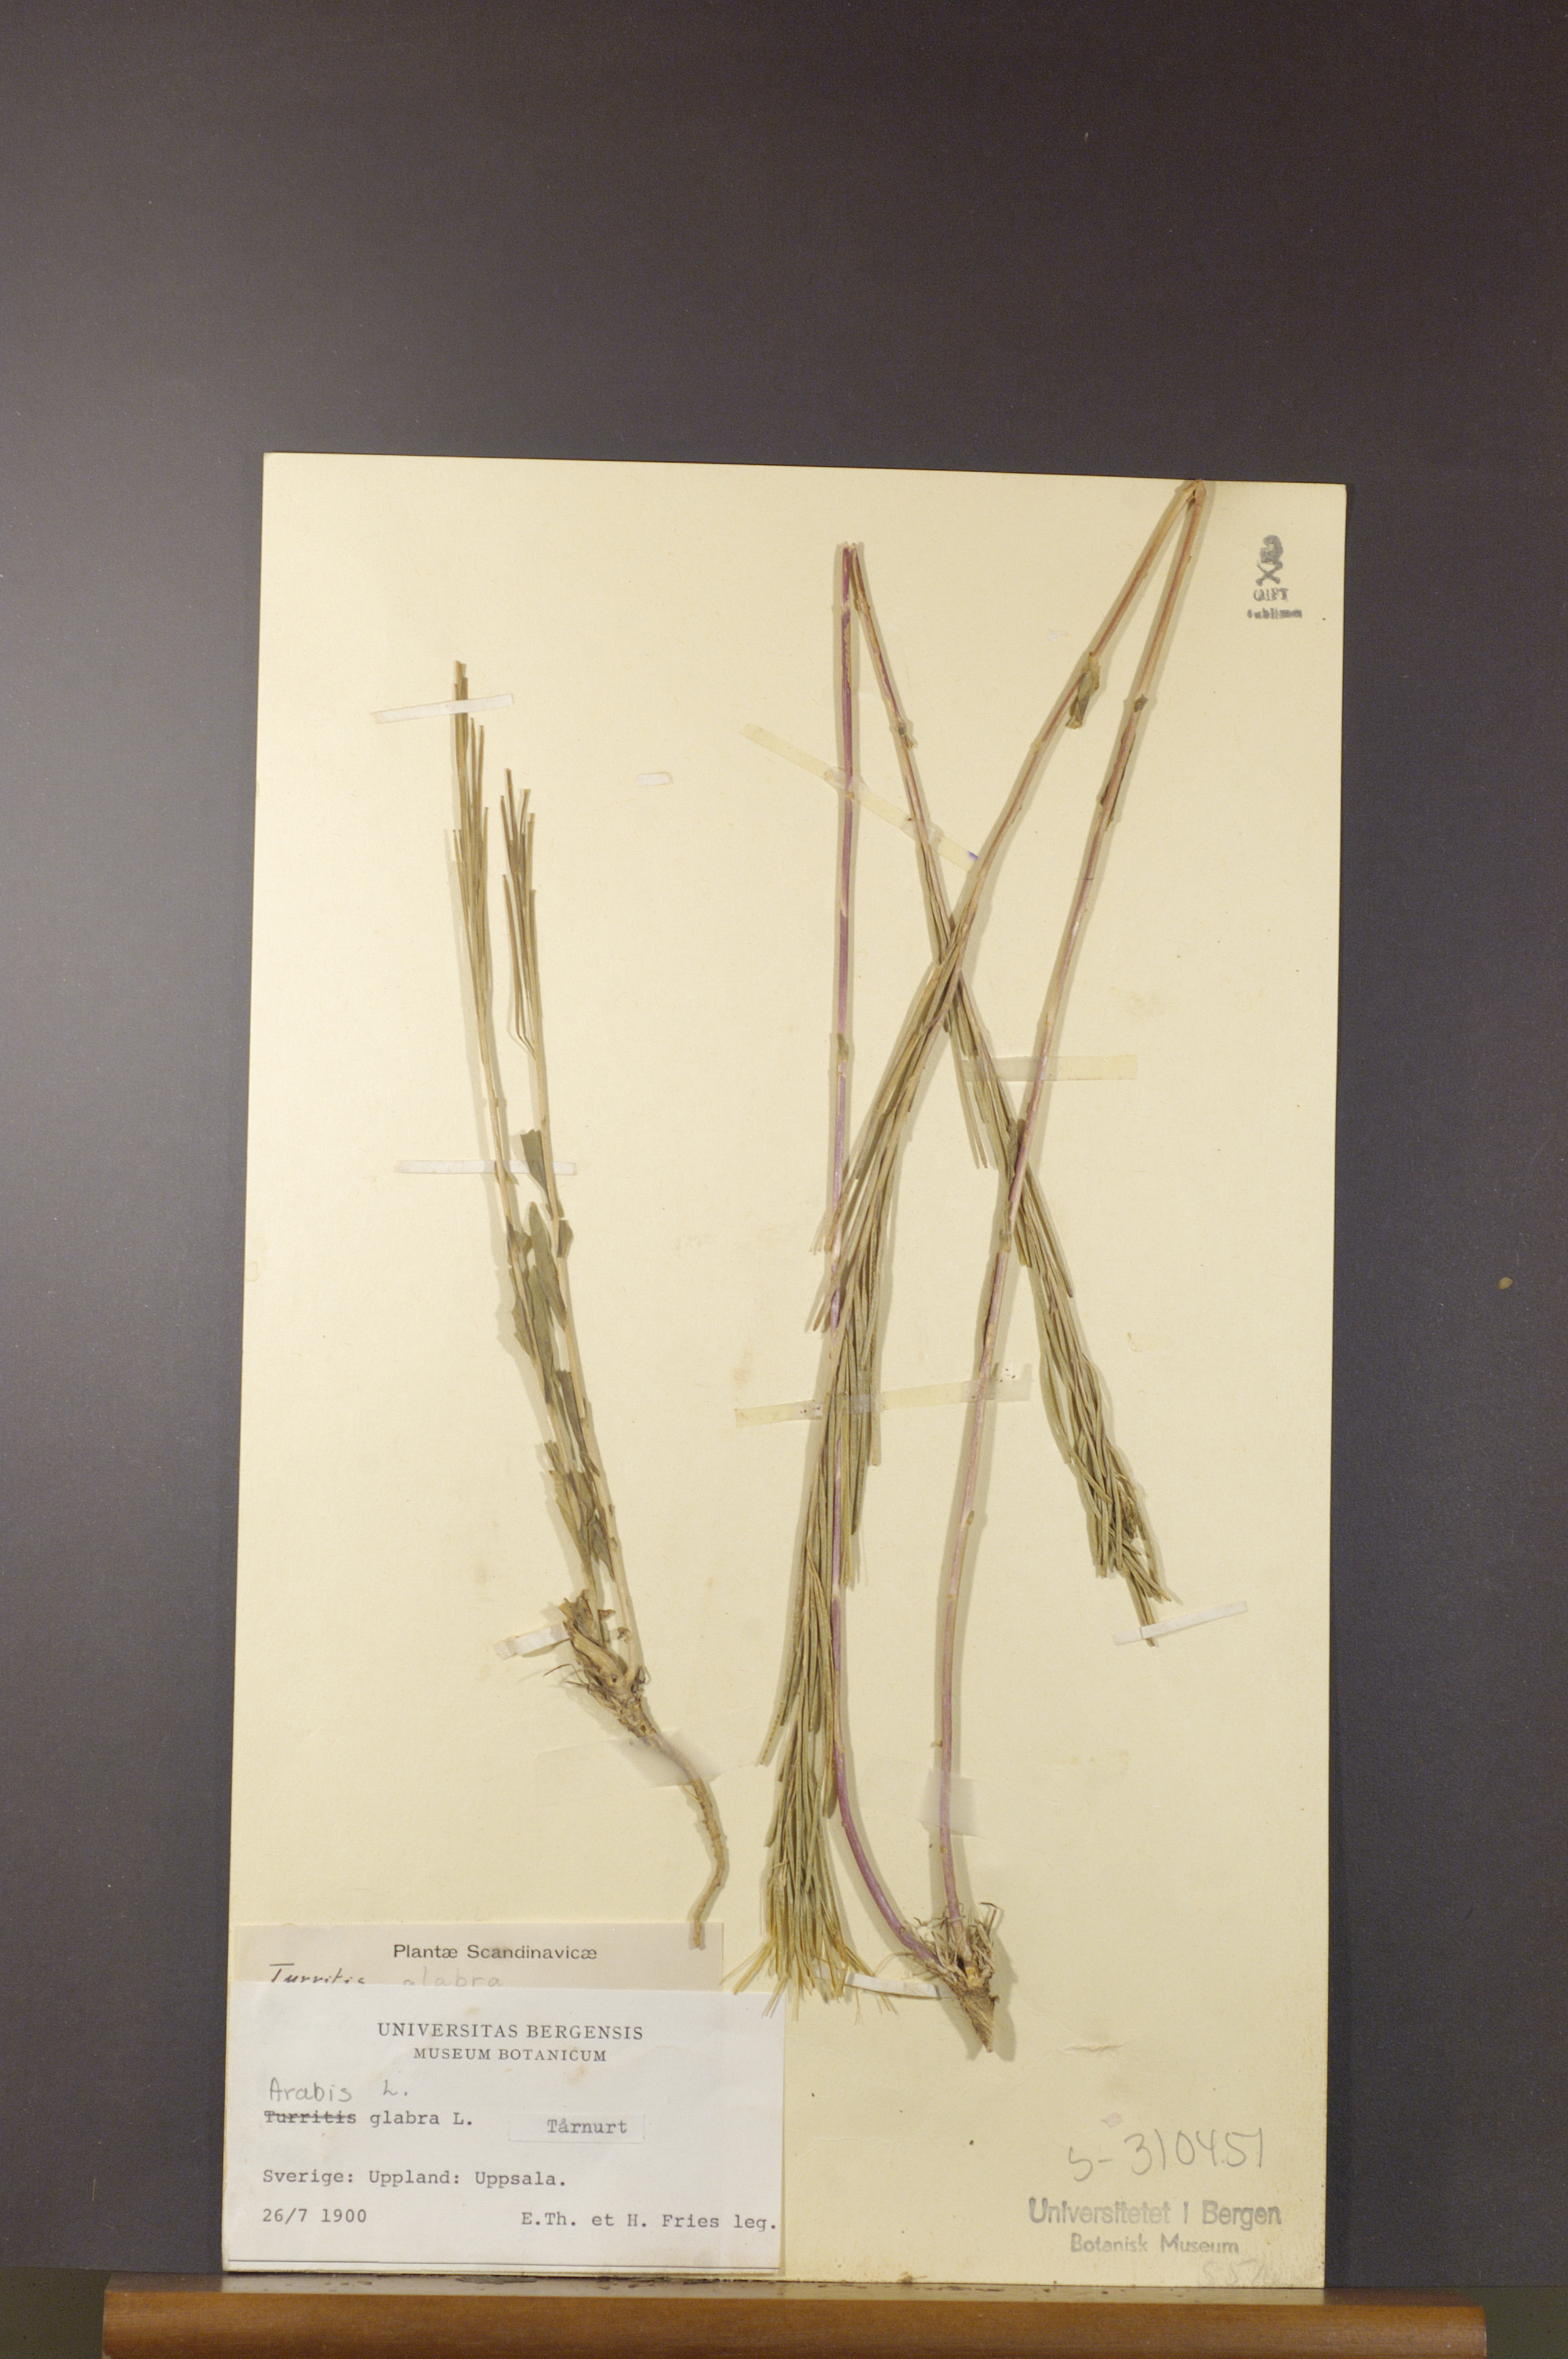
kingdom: Plantae
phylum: Tracheophyta
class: Magnoliopsida
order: Brassicales
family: Brassicaceae
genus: Turritis
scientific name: Turritis glabra
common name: Tower rockcress
